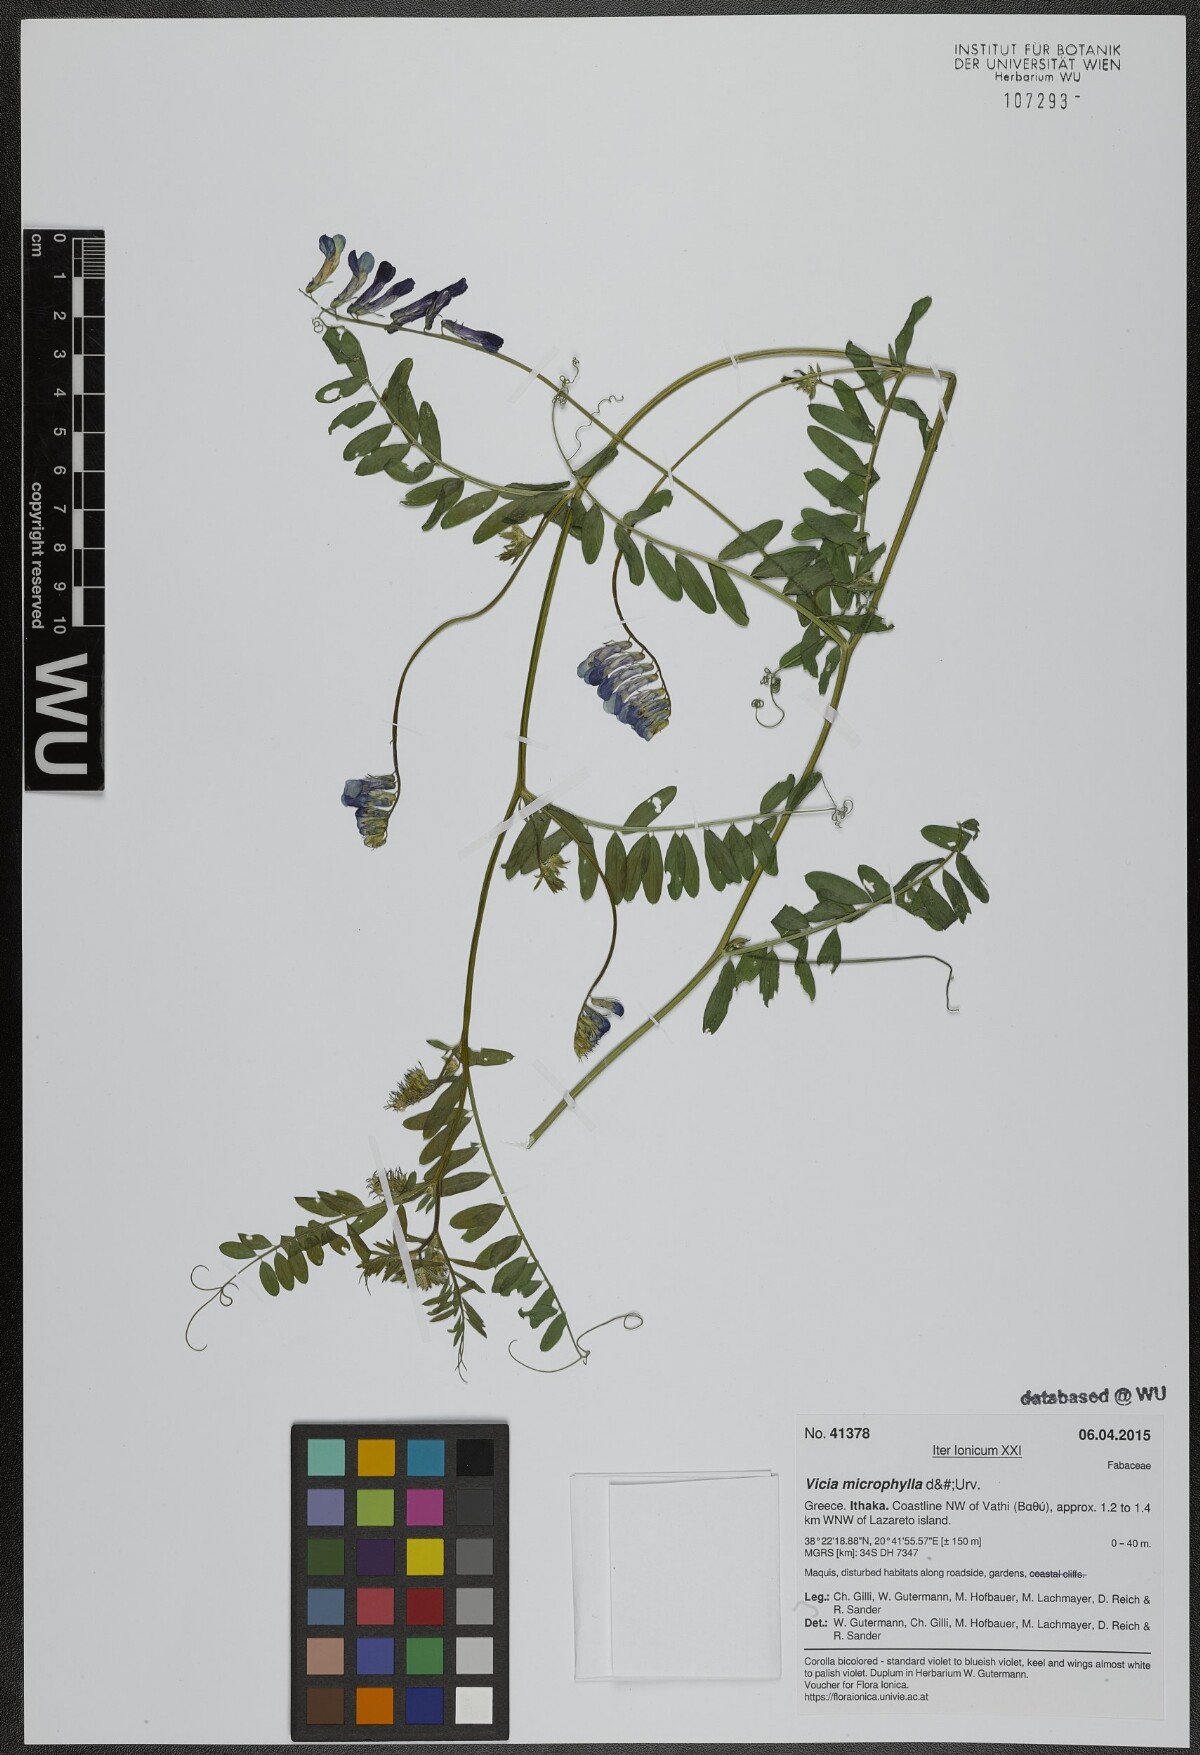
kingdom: Plantae
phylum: Tracheophyta
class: Magnoliopsida
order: Fabales
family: Fabaceae
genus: Vicia
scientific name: Vicia villosa
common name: Fodder vetch
